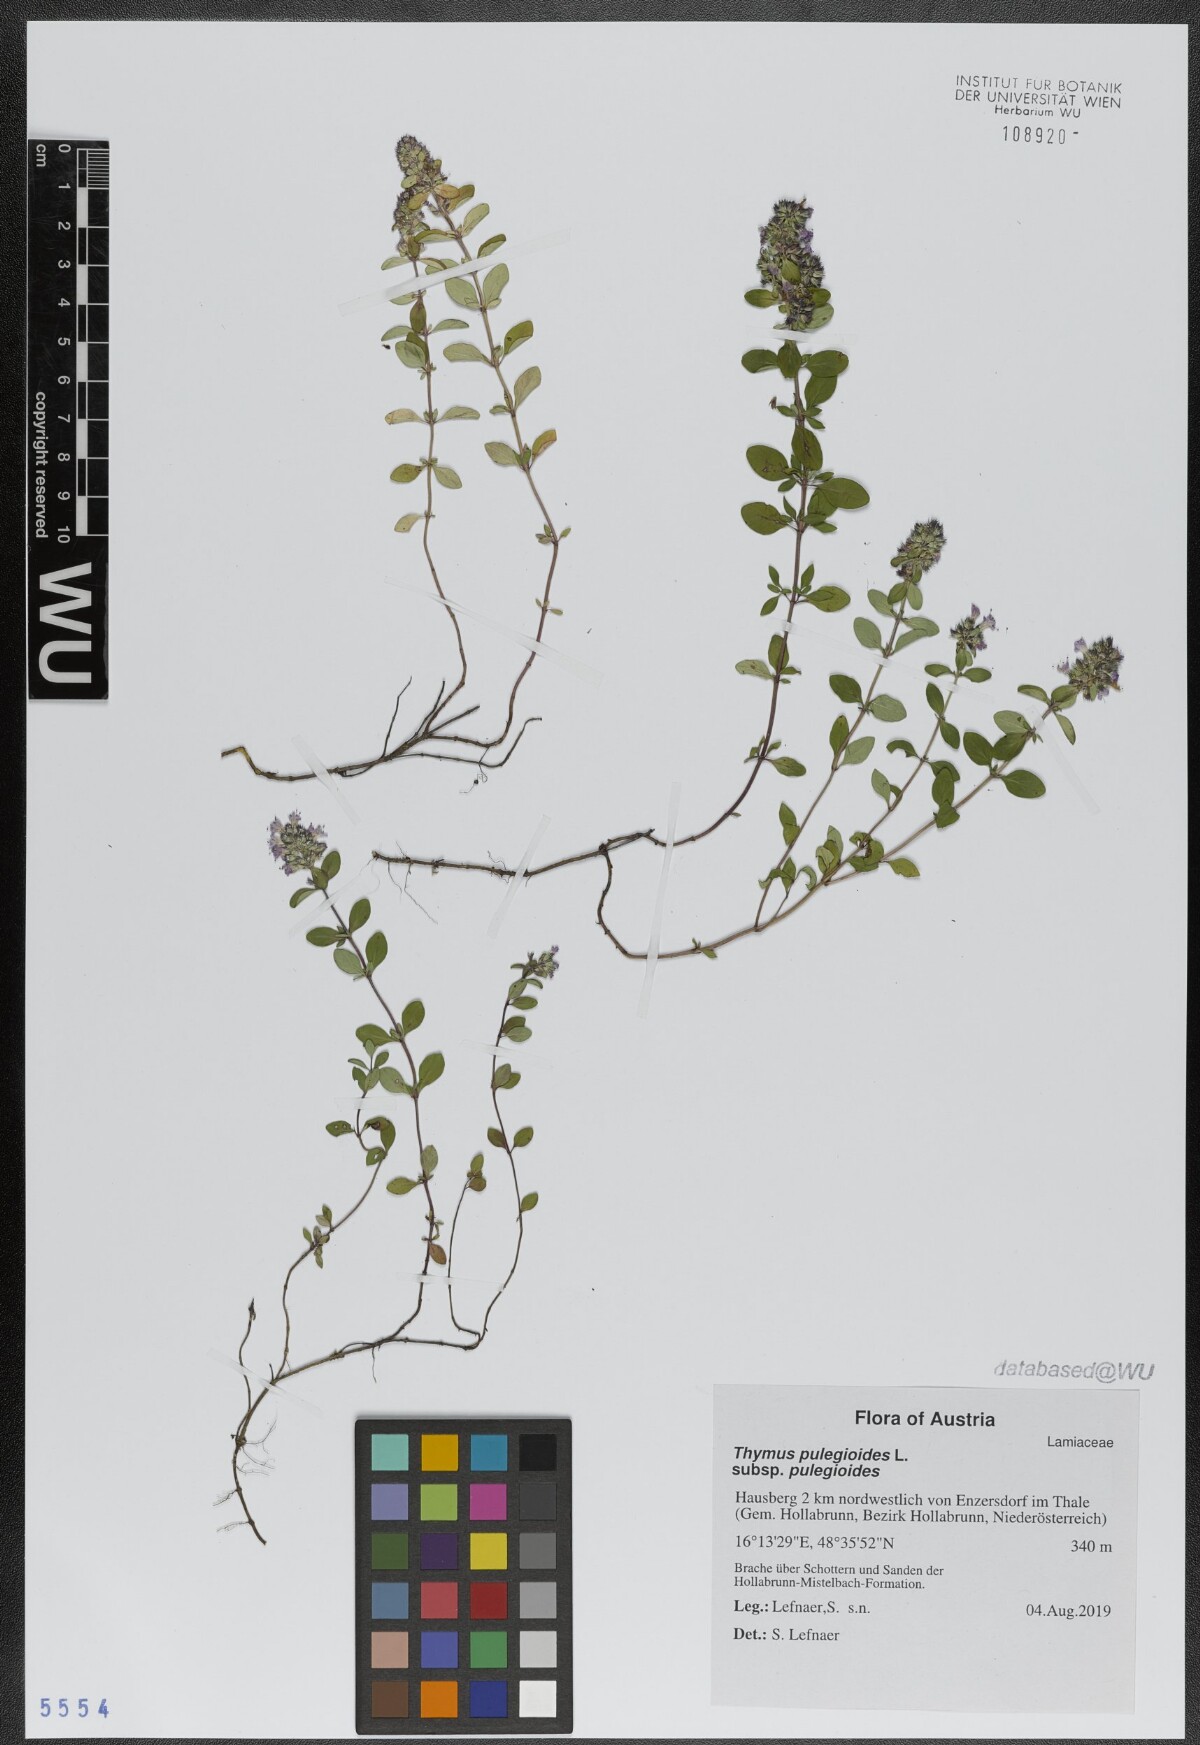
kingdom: Plantae
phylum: Tracheophyta
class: Magnoliopsida
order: Lamiales
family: Lamiaceae
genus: Thymus
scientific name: Thymus pulegioides
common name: Large thyme
